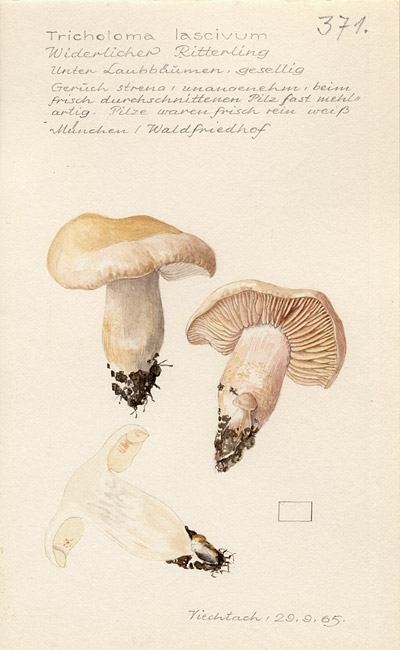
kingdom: Fungi
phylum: Basidiomycota
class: Agaricomycetes
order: Agaricales
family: Tricholomataceae
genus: Tricholoma
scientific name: Tricholoma lascivum
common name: Aromatic knight
